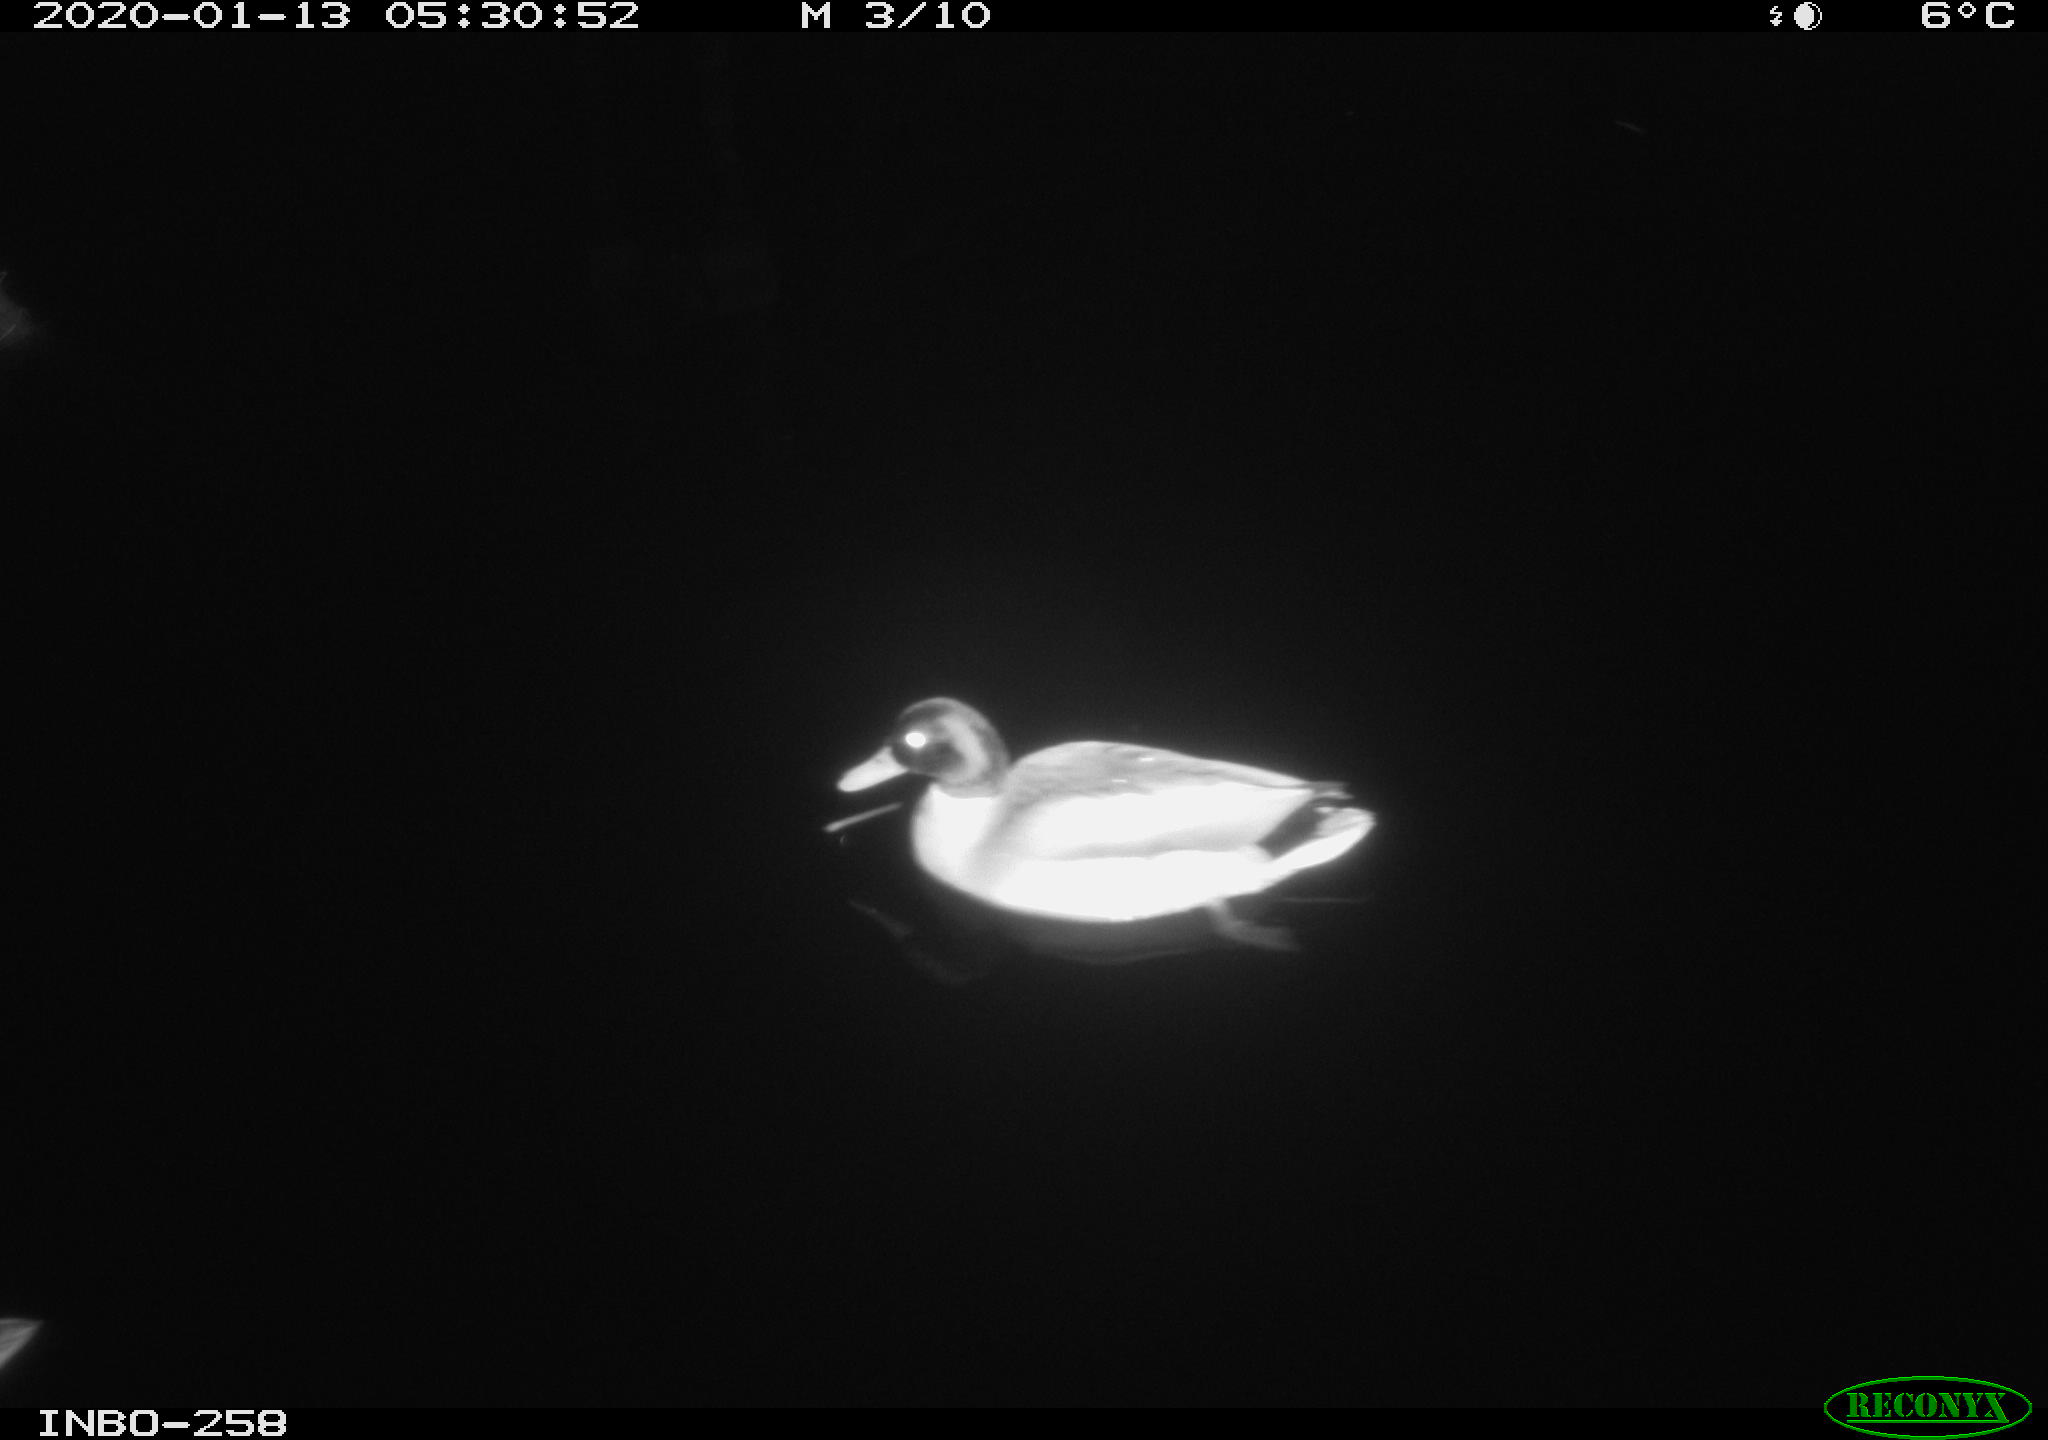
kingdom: Animalia
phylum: Chordata
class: Aves
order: Anseriformes
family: Anatidae
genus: Anas
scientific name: Anas platyrhynchos
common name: Mallard
